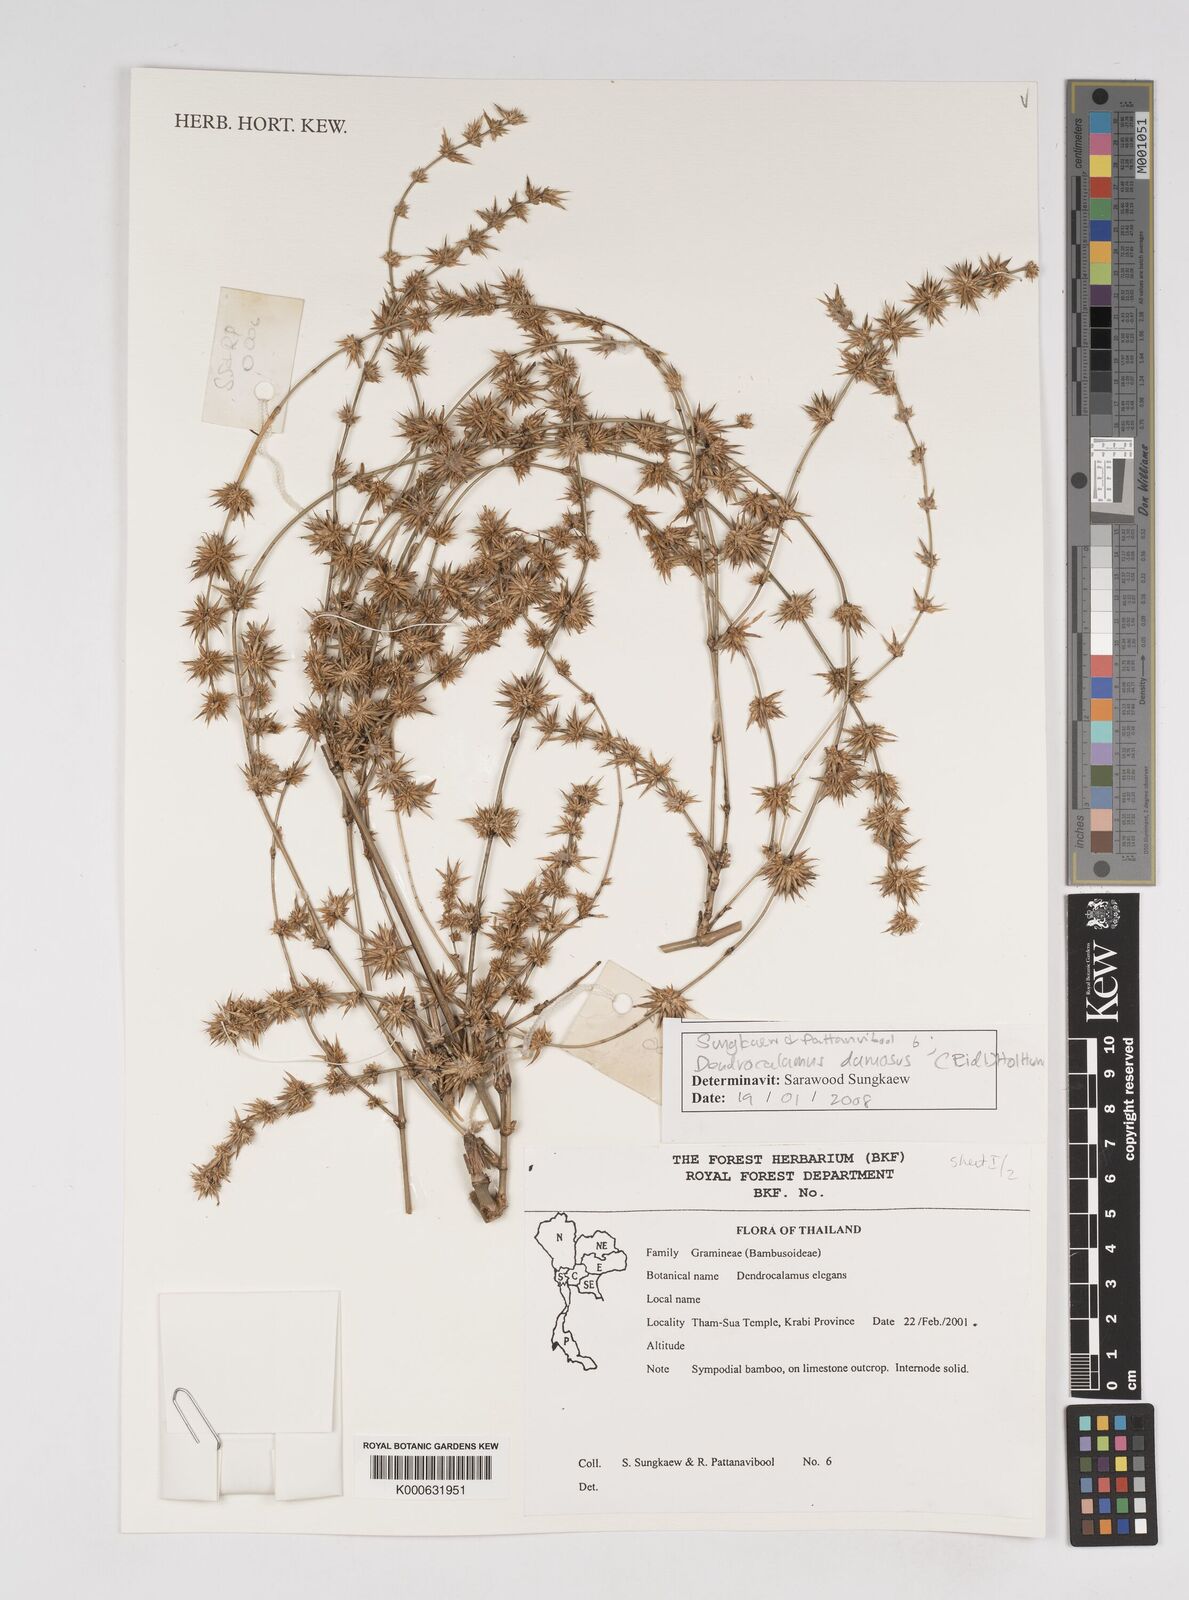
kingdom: Plantae
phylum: Tracheophyta
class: Liliopsida
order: Poales
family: Poaceae
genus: Dendrocalamus
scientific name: Dendrocalamus dumosus
